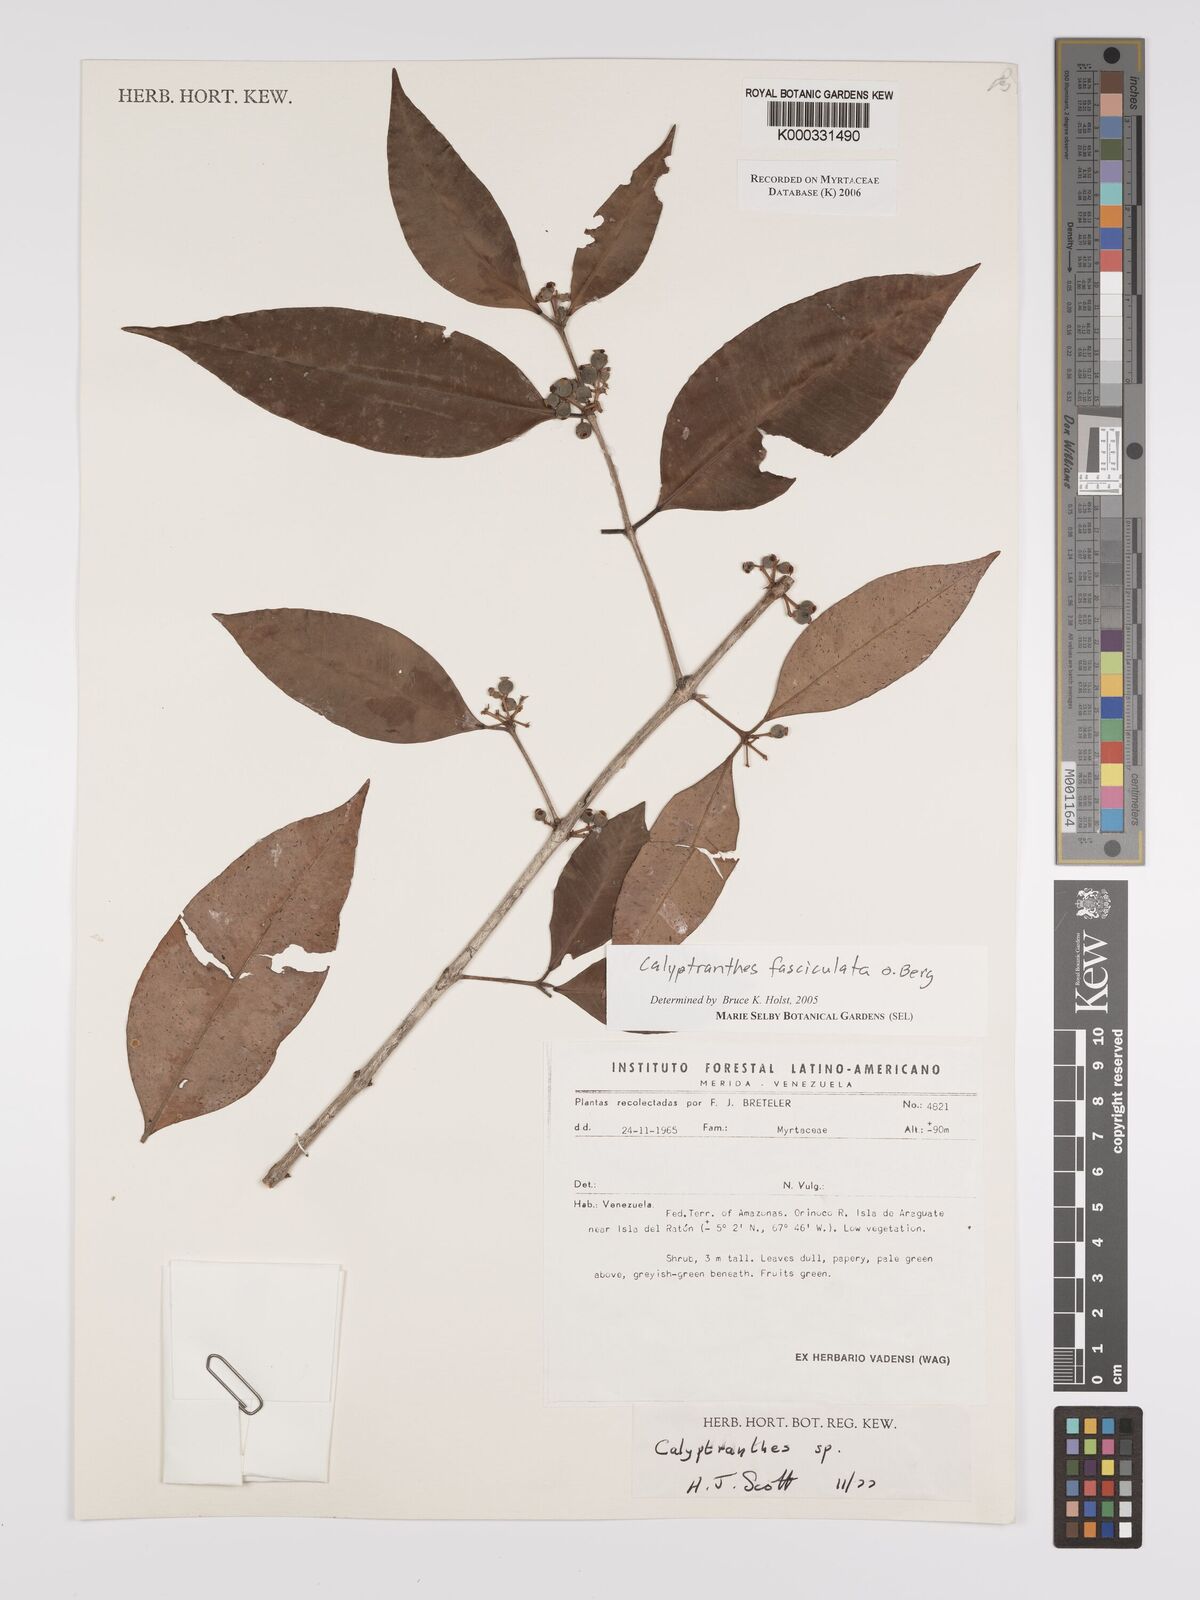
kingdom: Plantae
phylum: Tracheophyta
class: Magnoliopsida
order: Myrtales
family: Myrtaceae
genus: Myrcia
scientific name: Myrcia fasciculata
